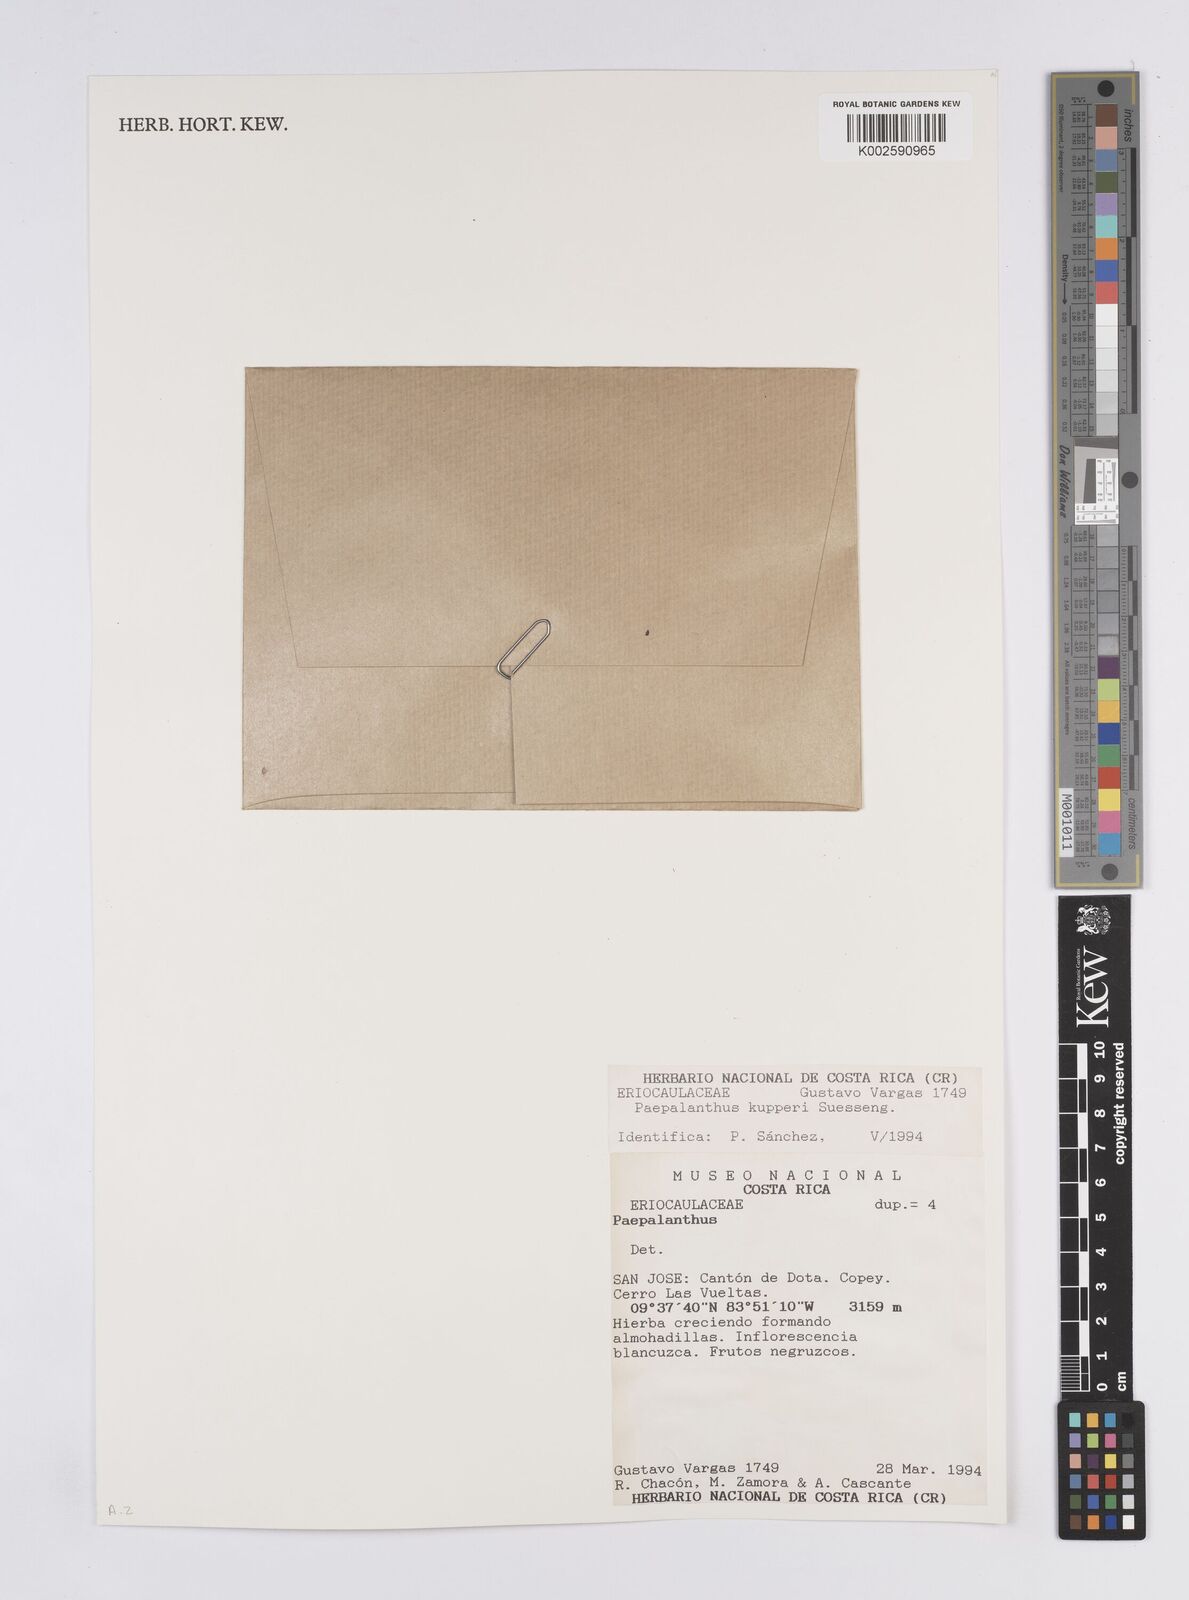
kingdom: Plantae
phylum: Tracheophyta
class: Liliopsida
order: Poales
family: Eriocaulaceae
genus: Paepalanthus
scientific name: Paepalanthus pilosus
